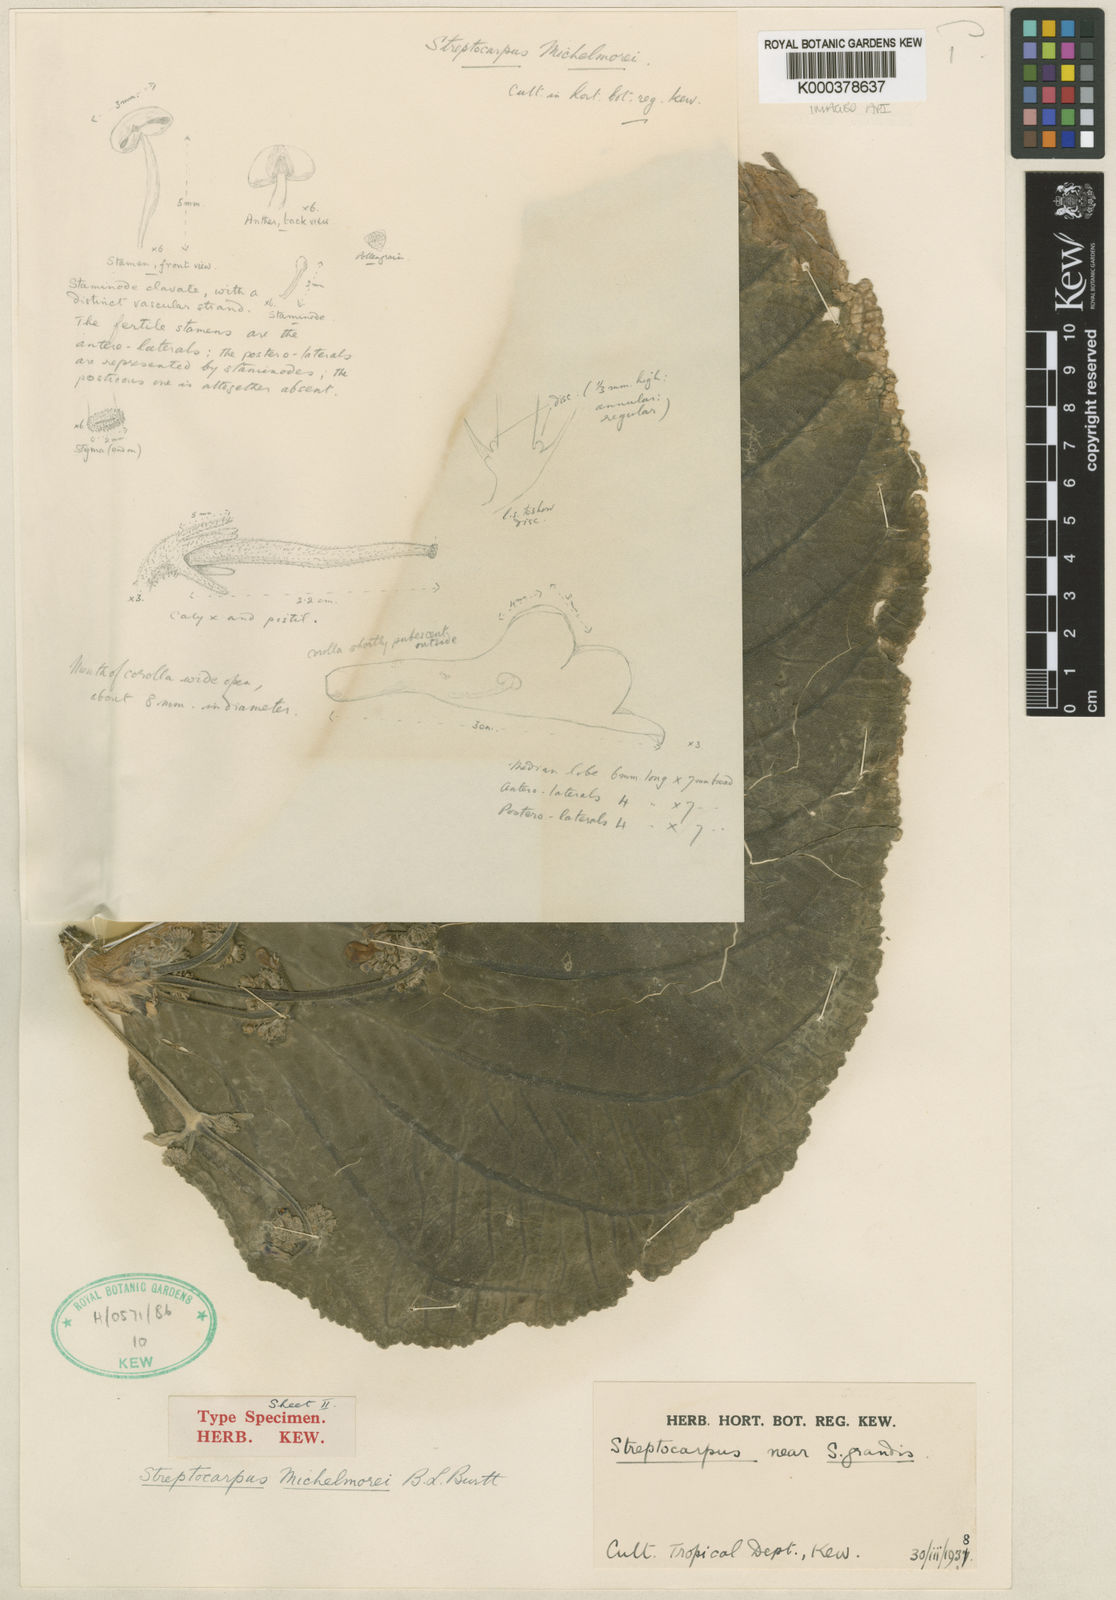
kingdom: Plantae
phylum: Tracheophyta
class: Magnoliopsida
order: Lamiales
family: Gesneriaceae
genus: Streptocarpus
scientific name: Streptocarpus michelmorei
